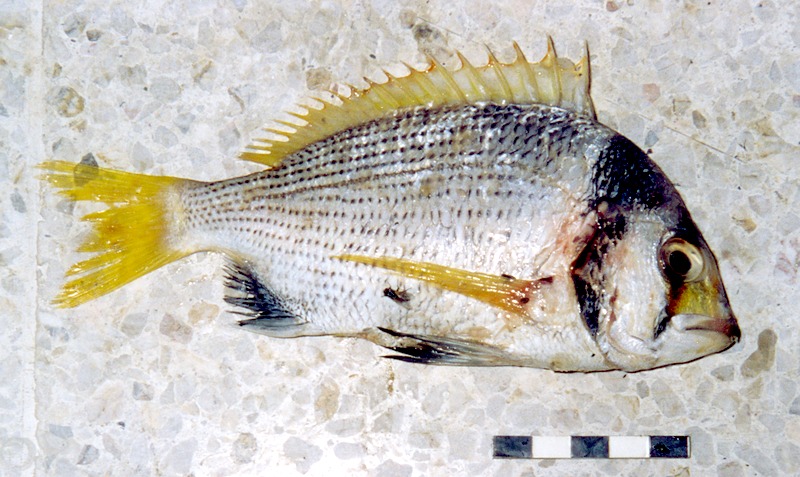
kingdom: Animalia
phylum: Chordata
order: Perciformes
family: Sparidae
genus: Acanthopagrus
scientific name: Acanthopagrus bifasciatus
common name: Twobar seabream
